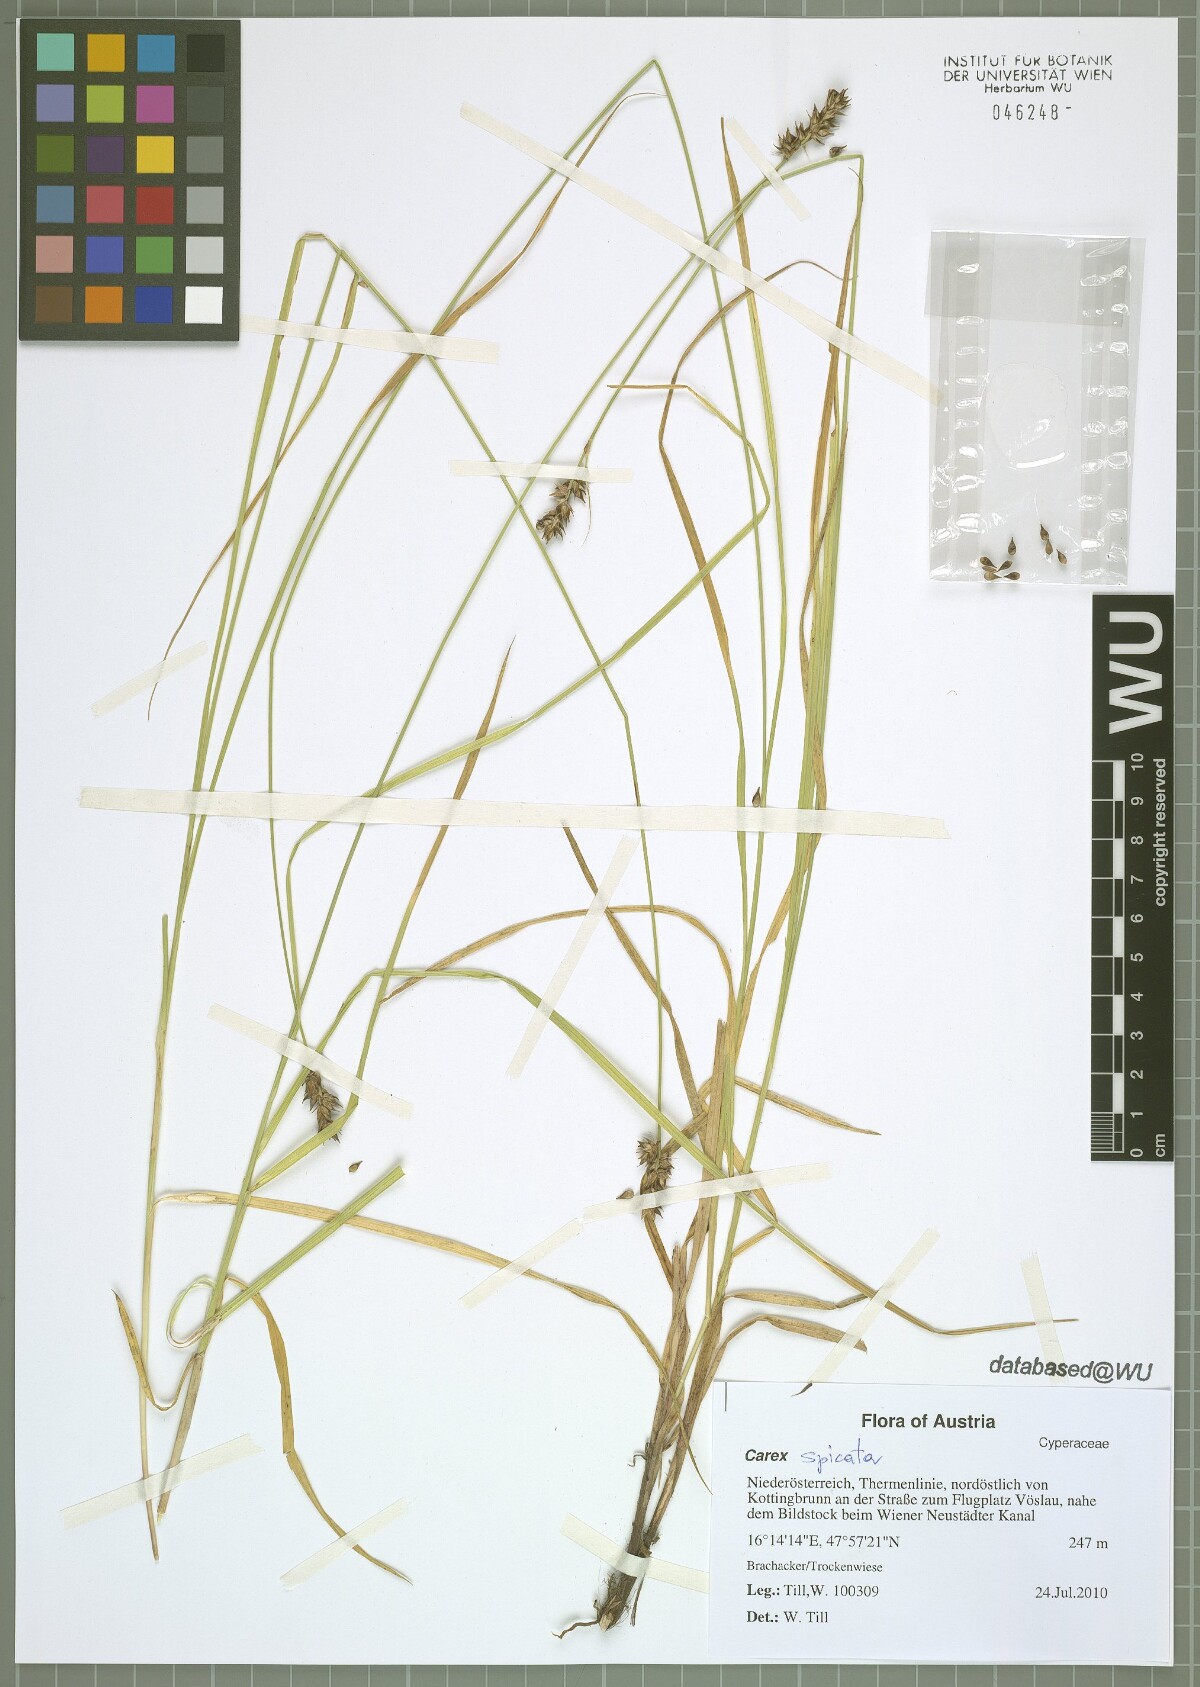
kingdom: Plantae
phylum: Tracheophyta
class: Liliopsida
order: Poales
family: Cyperaceae
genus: Carex
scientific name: Carex spicata
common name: Spiked sedge
